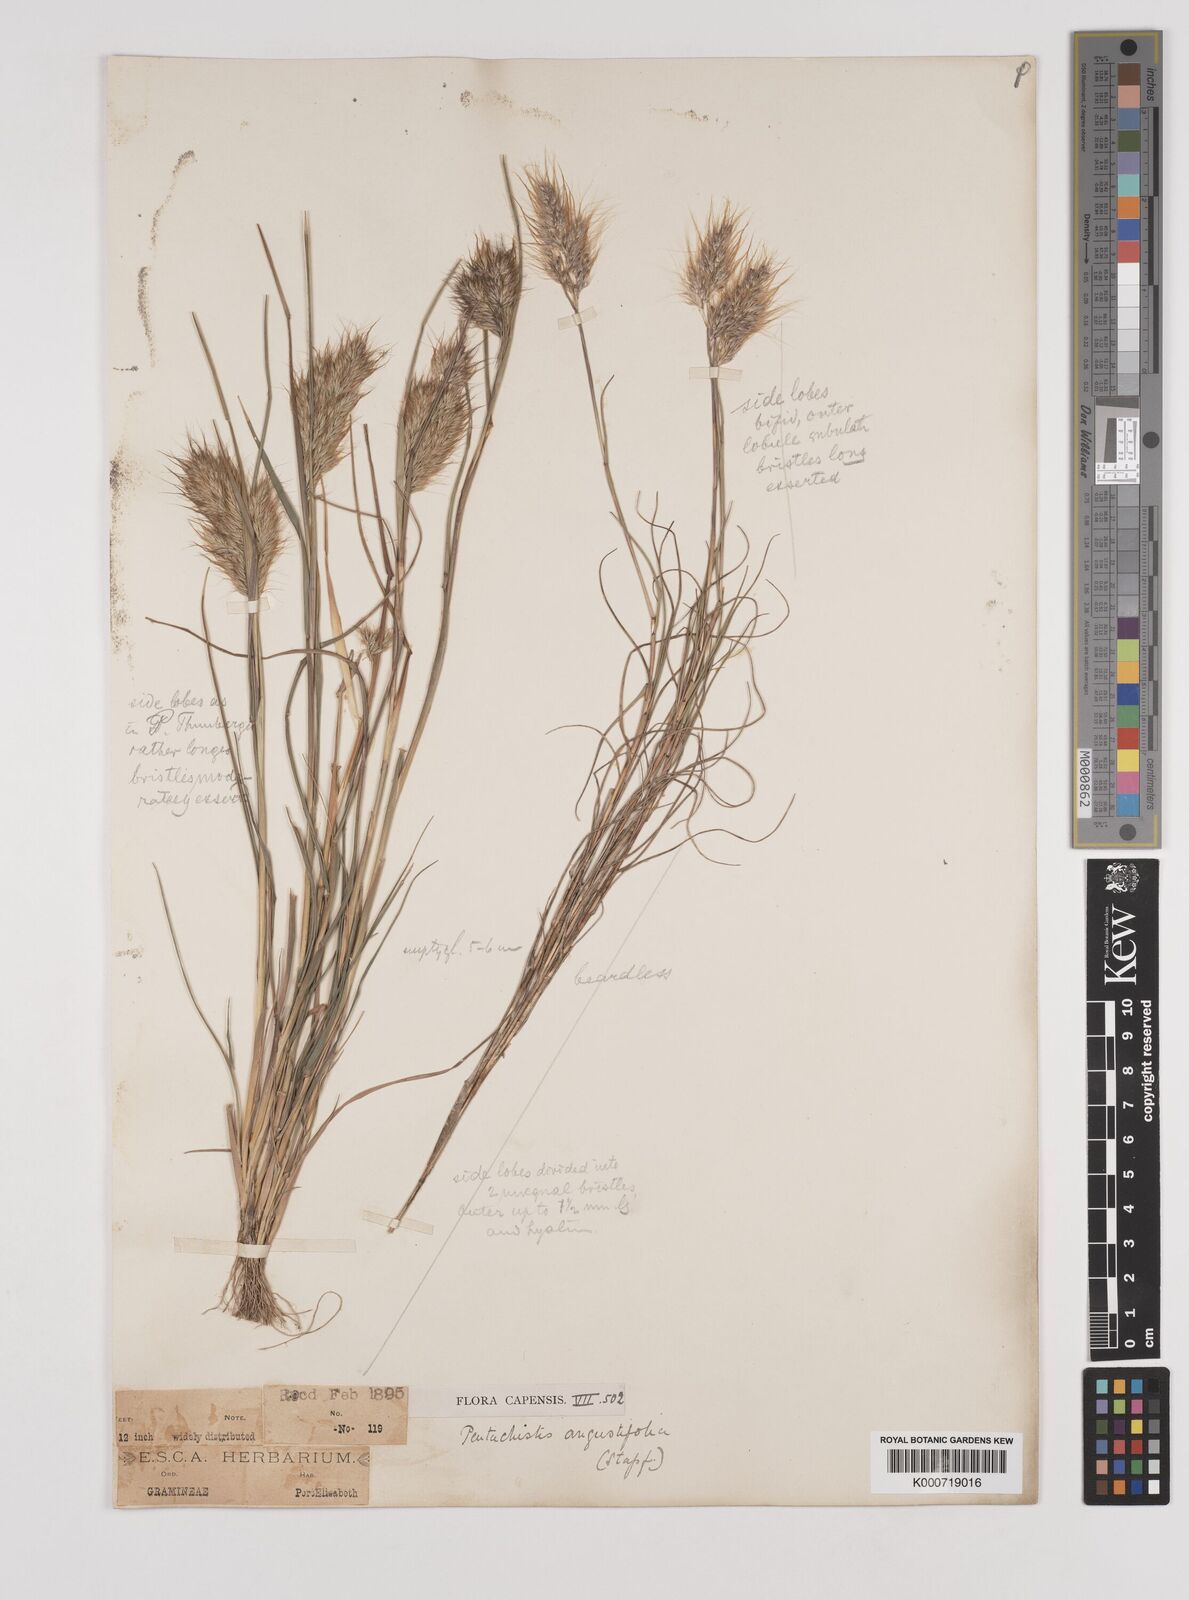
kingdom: Plantae
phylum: Tracheophyta
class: Liliopsida
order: Poales
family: Poaceae
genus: Pentameris
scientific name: Pentameris pallida
